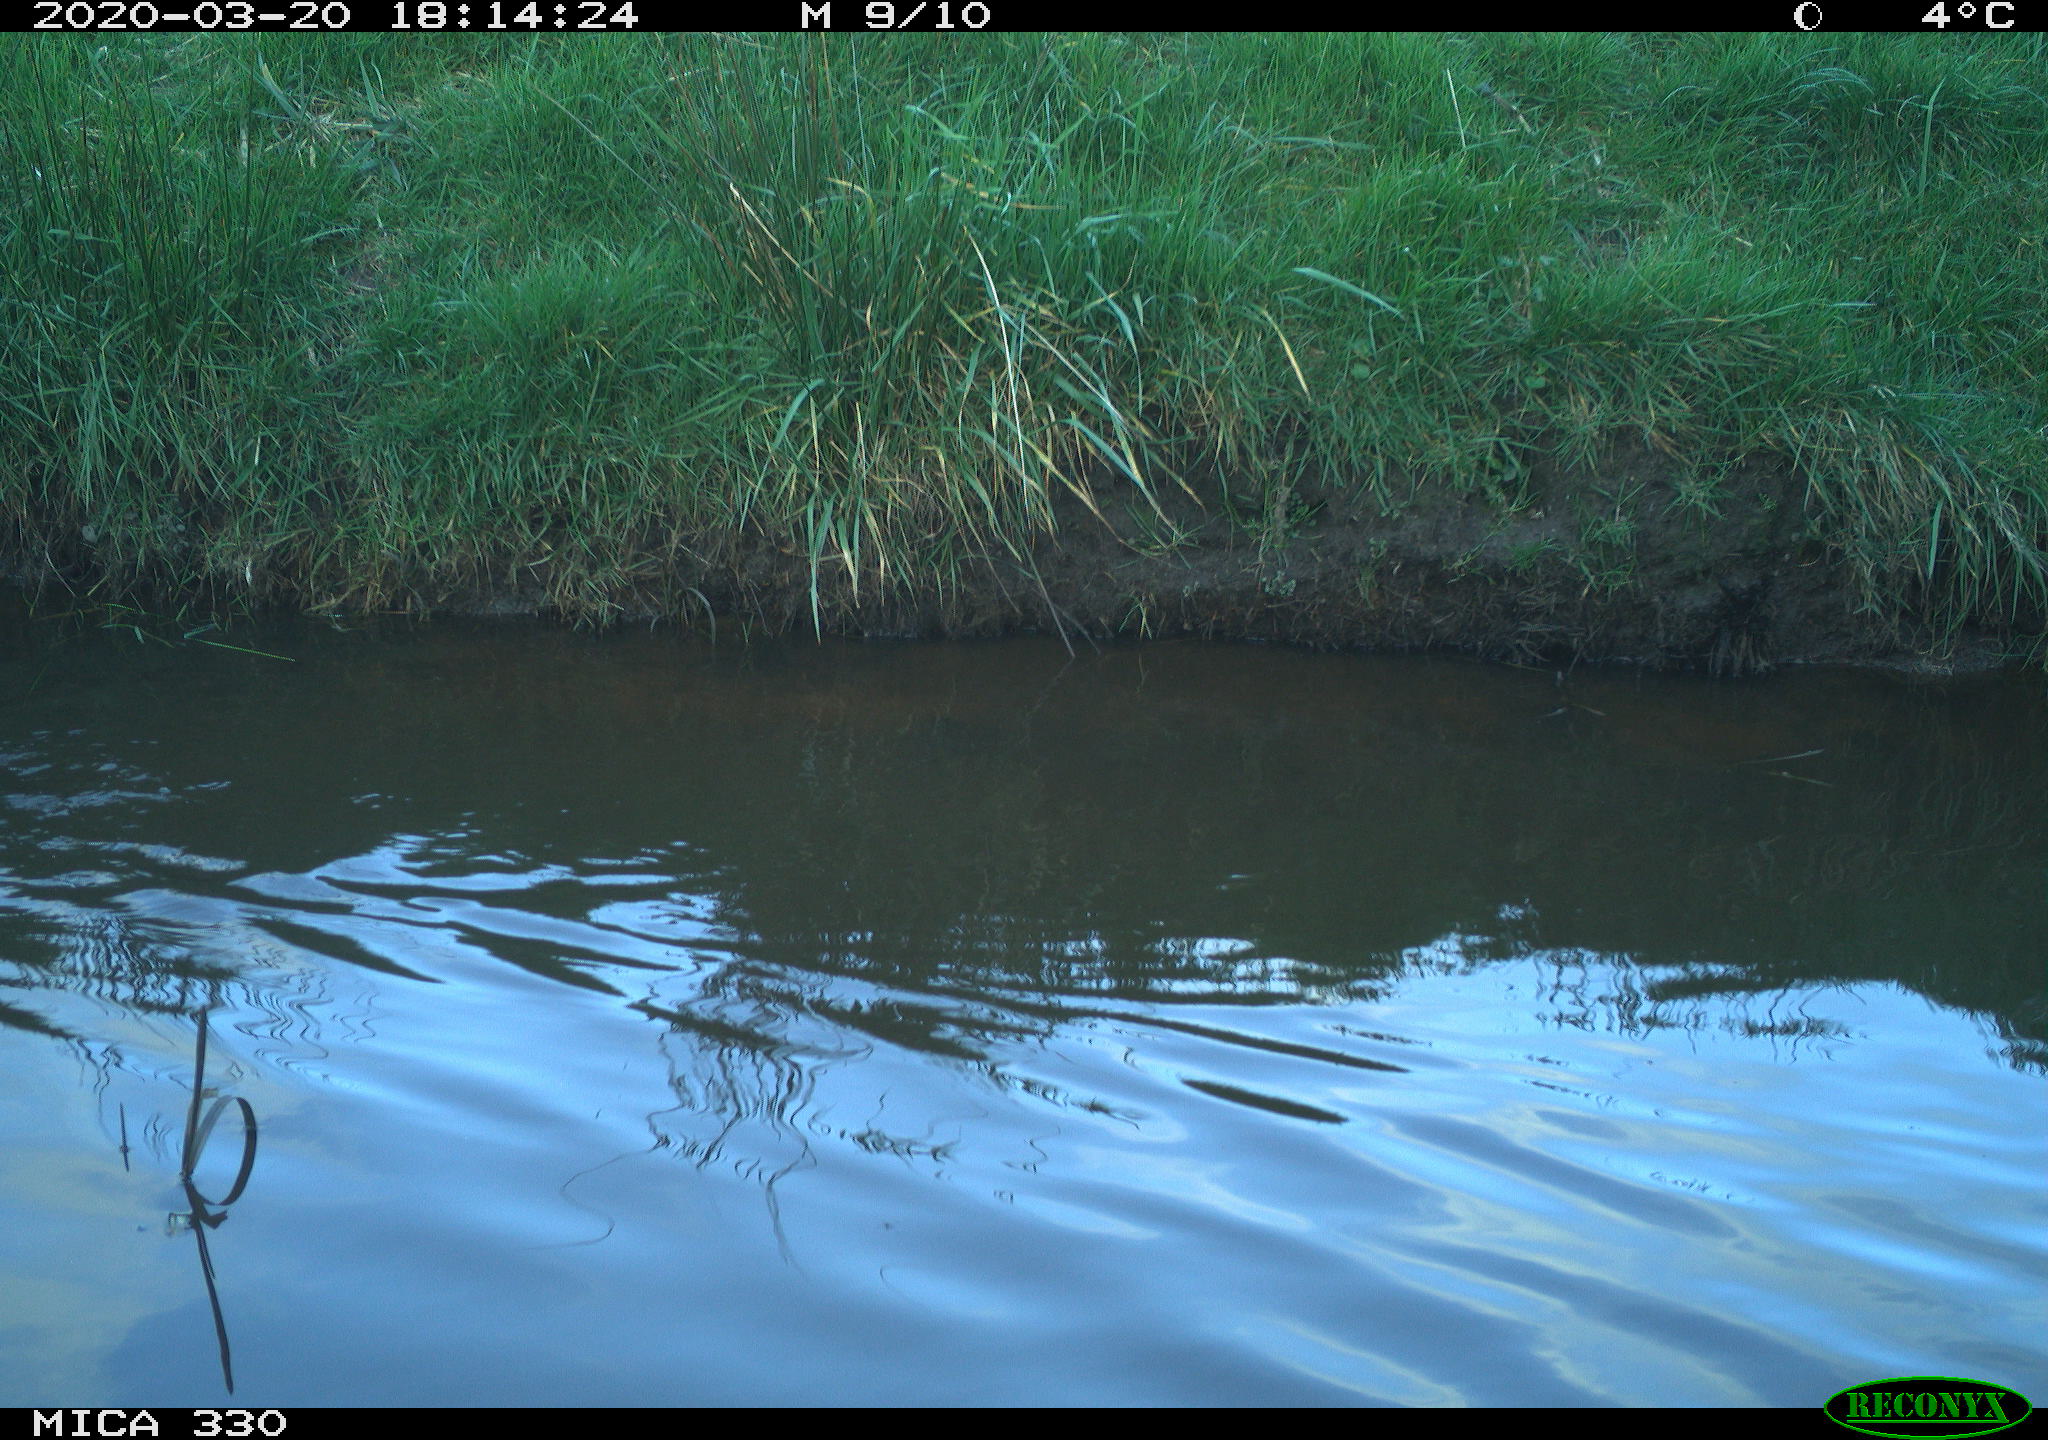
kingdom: Animalia
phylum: Chordata
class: Aves
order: Anseriformes
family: Anatidae
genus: Anas
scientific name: Anas platyrhynchos
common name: Mallard
